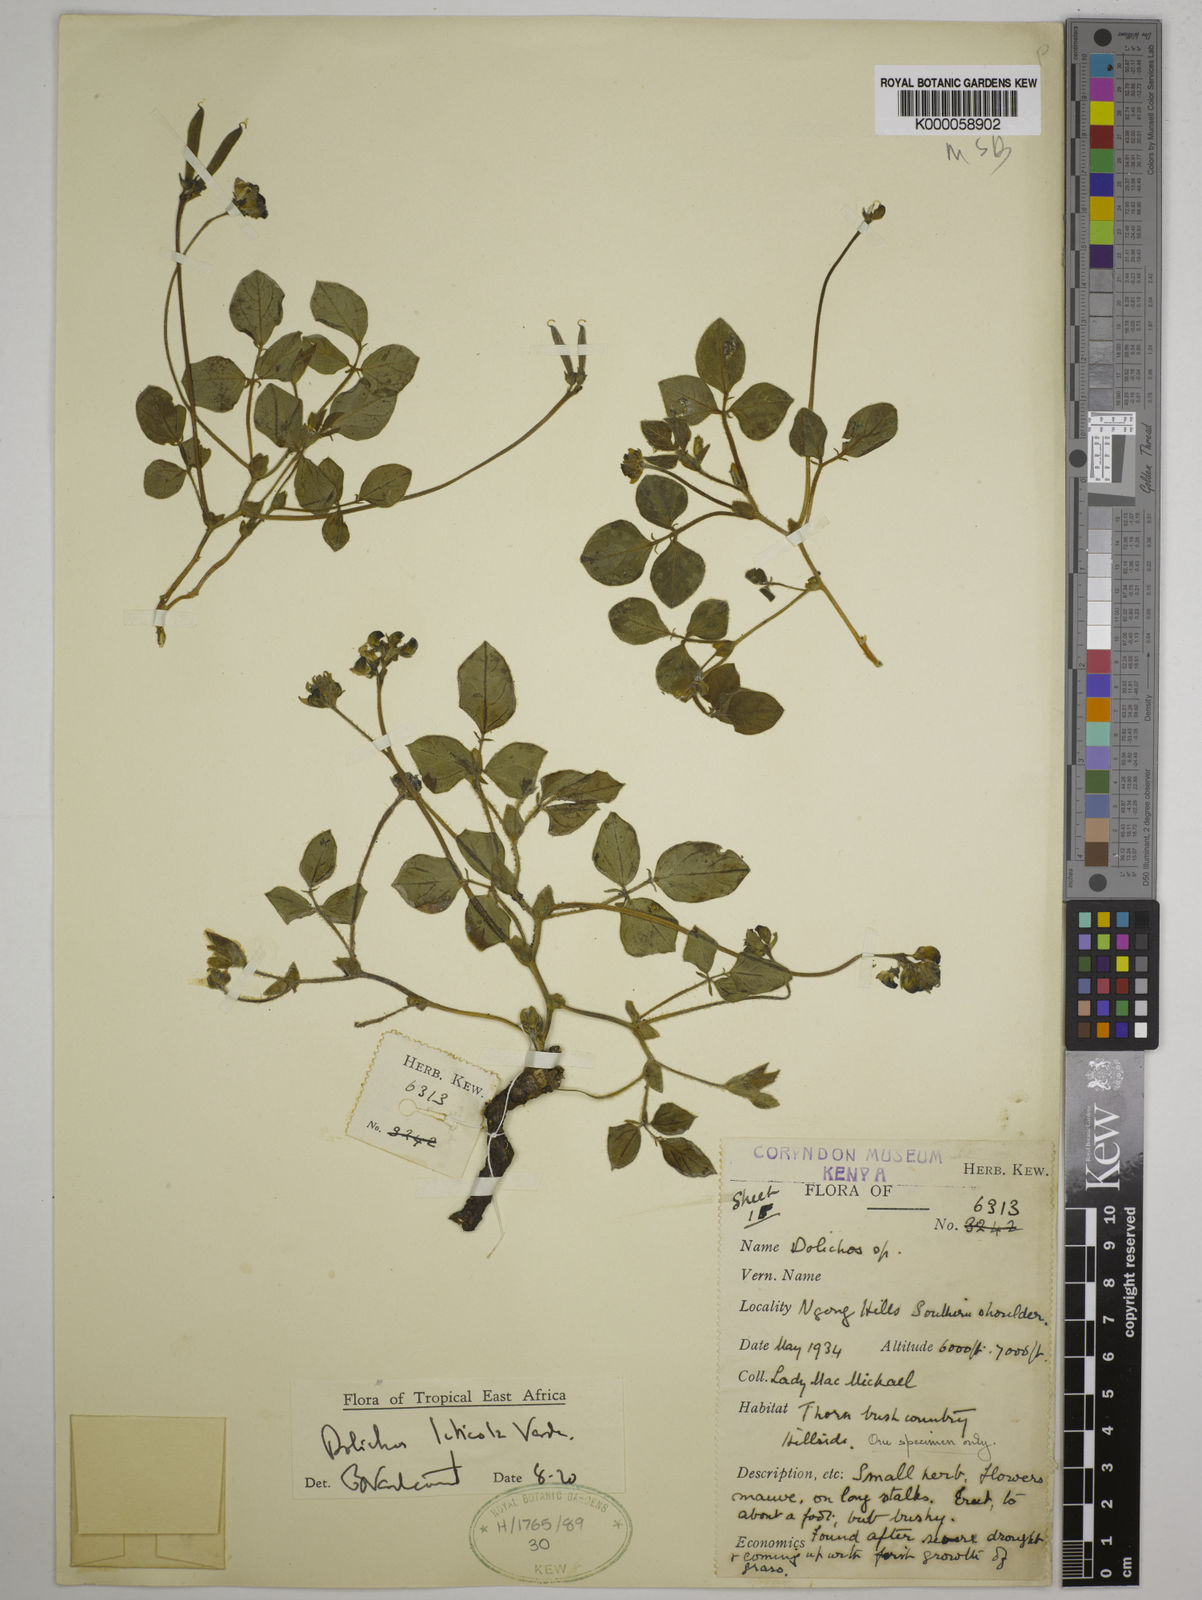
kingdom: Plantae
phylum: Tracheophyta
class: Magnoliopsida
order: Fabales
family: Fabaceae
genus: Dolichos
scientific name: Dolichos luticola
